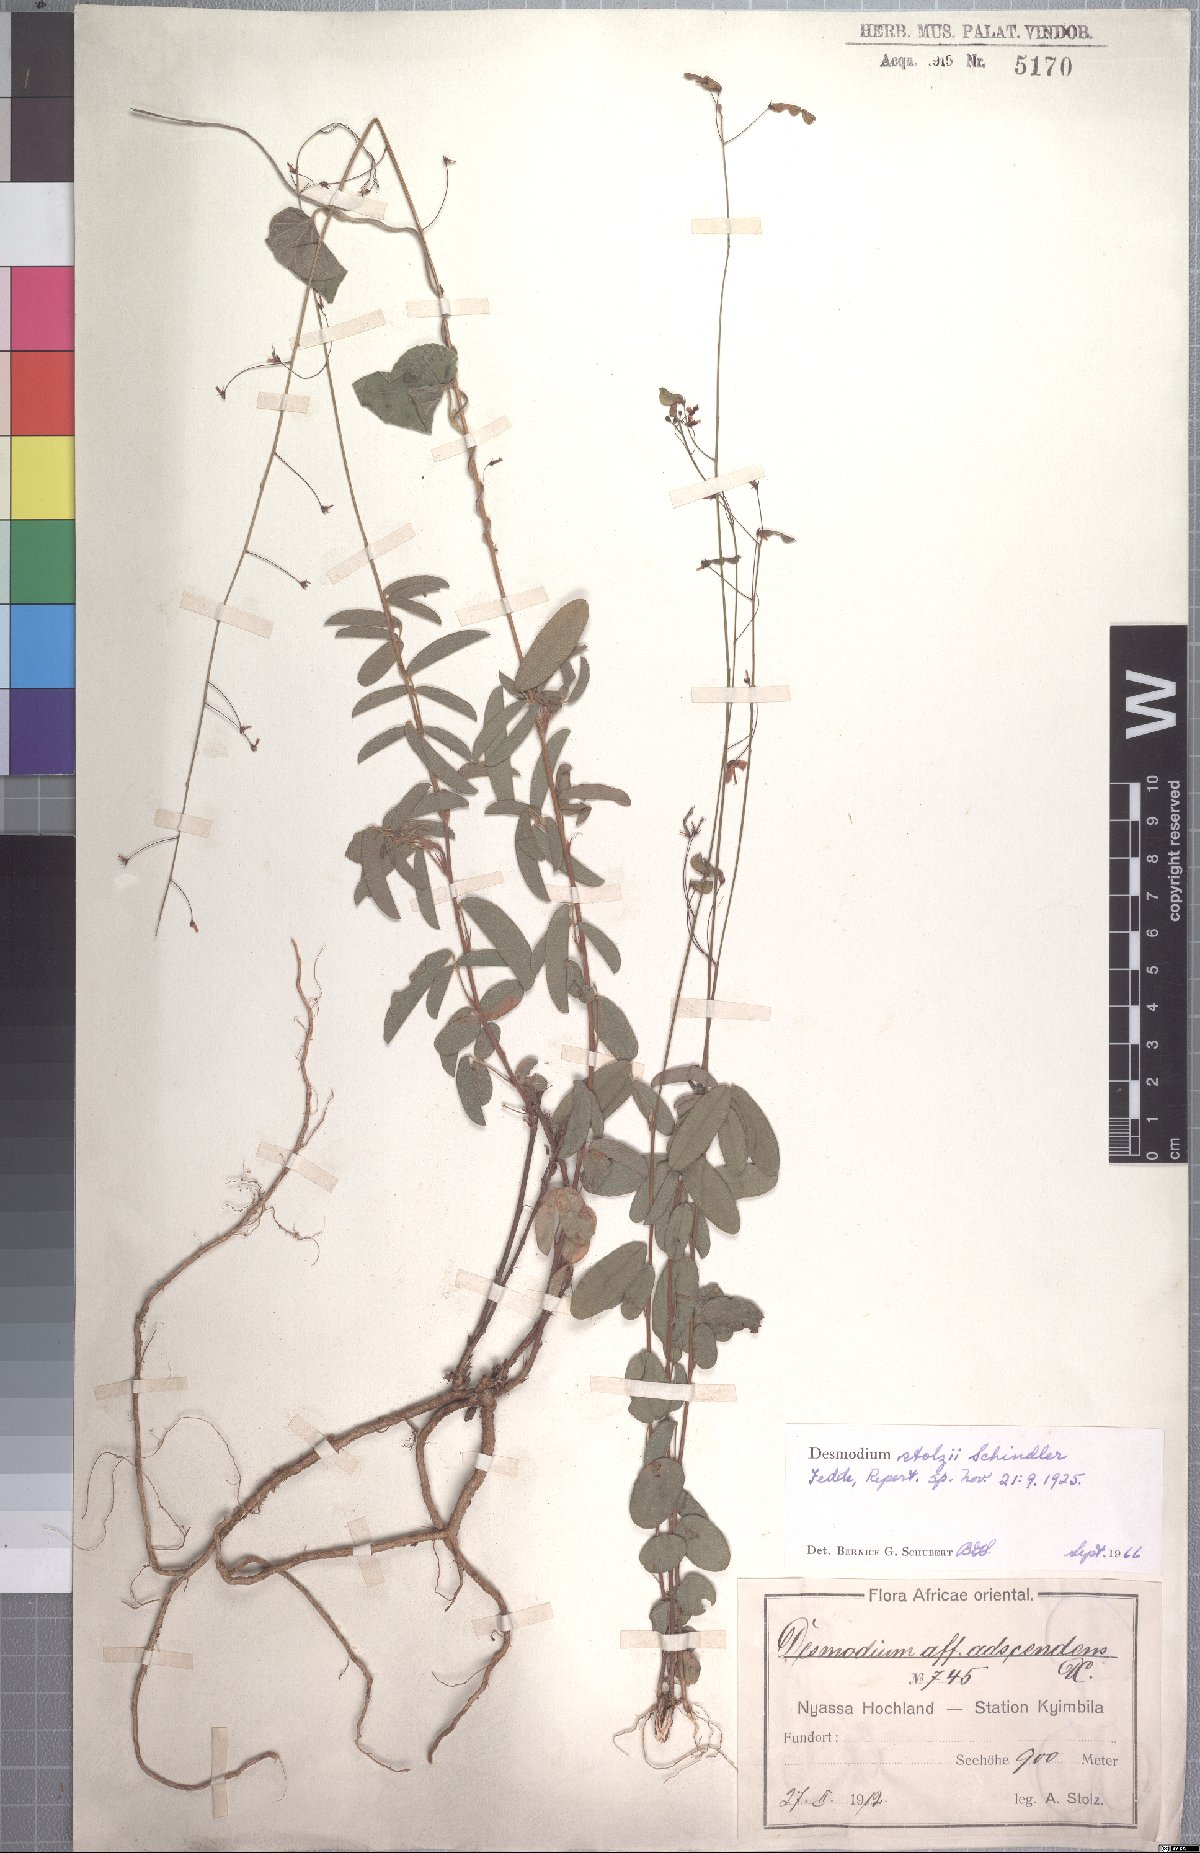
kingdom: Plantae
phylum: Tracheophyta
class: Magnoliopsida
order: Fabales
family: Fabaceae
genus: Grona
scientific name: Grona stolzii
